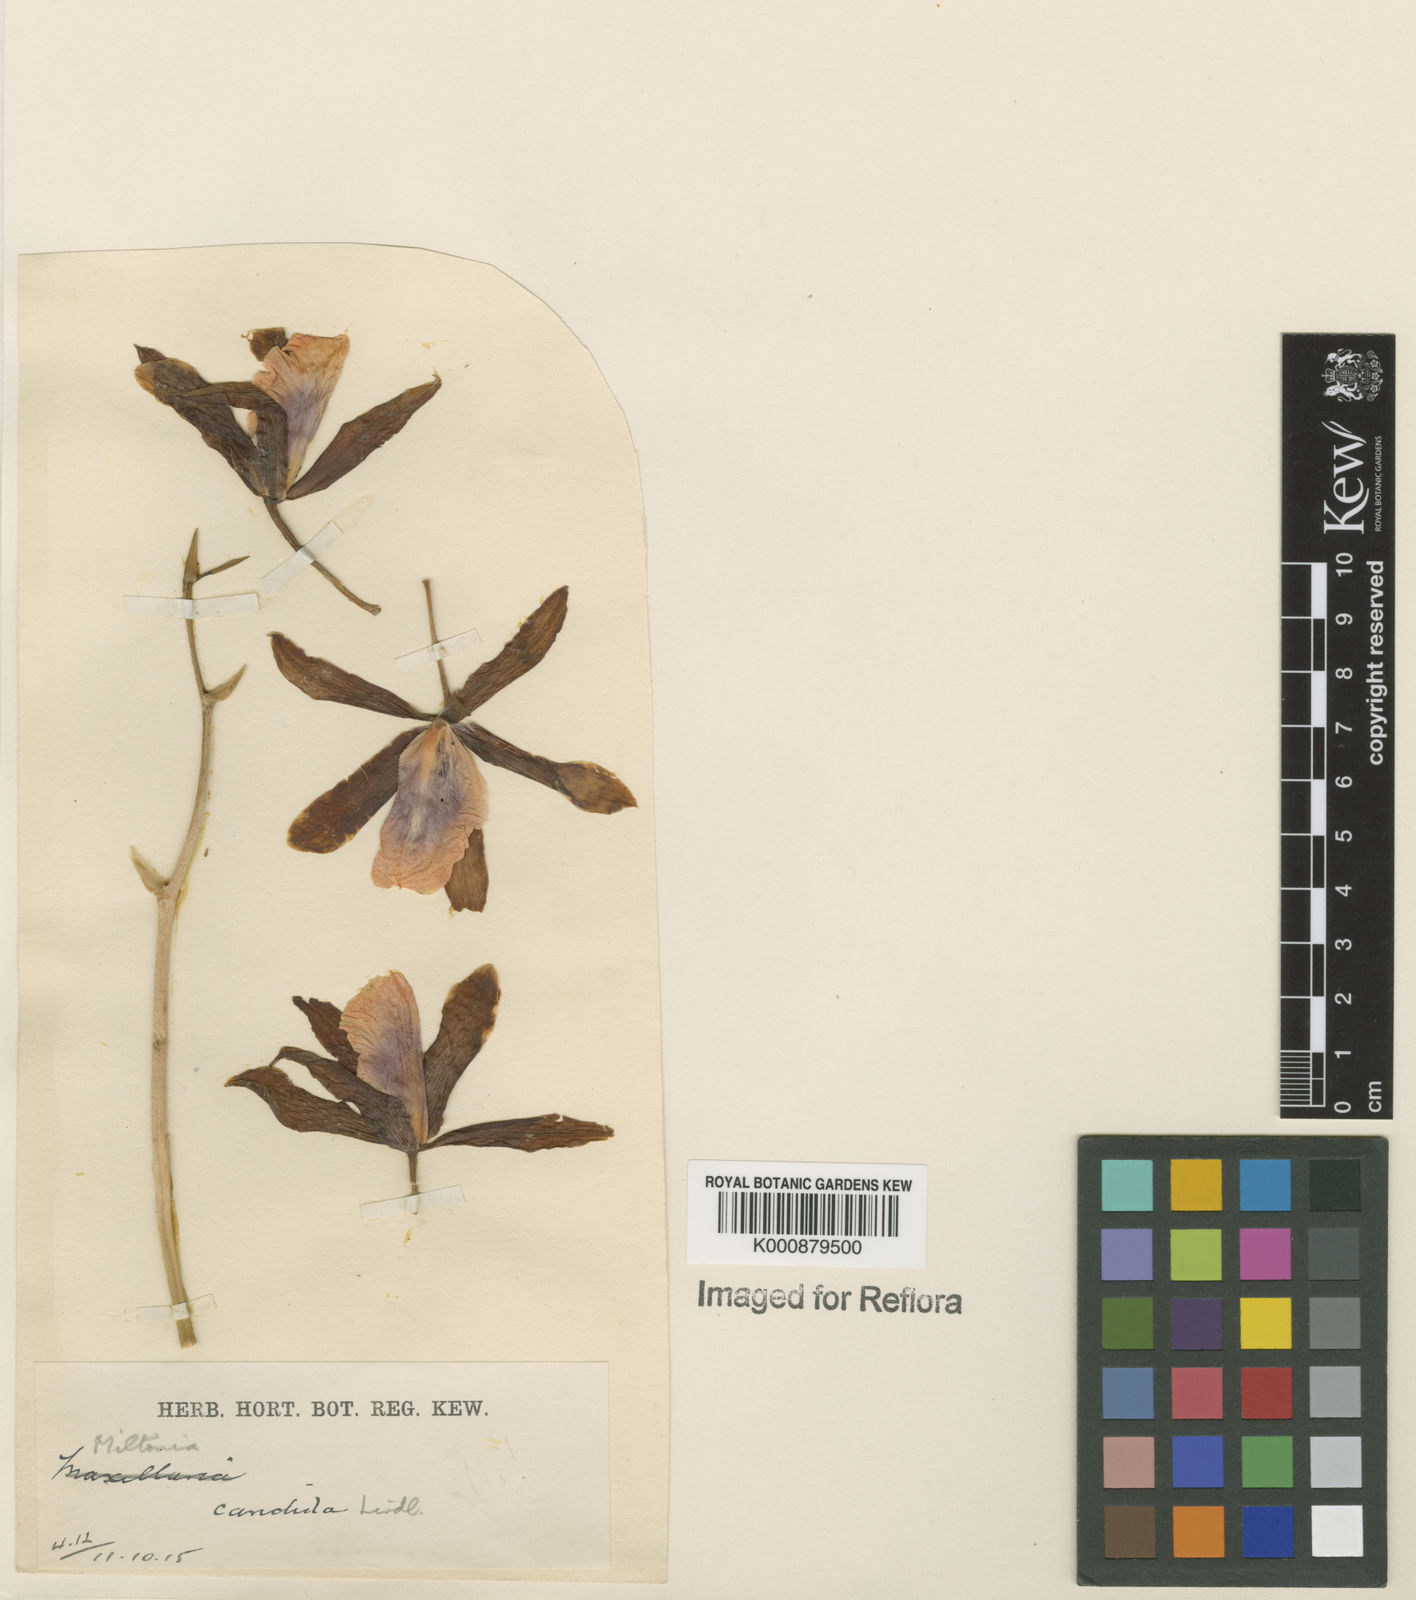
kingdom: Plantae
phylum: Tracheophyta
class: Liliopsida
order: Asparagales
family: Orchidaceae
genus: Miltonia
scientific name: Miltonia candida
